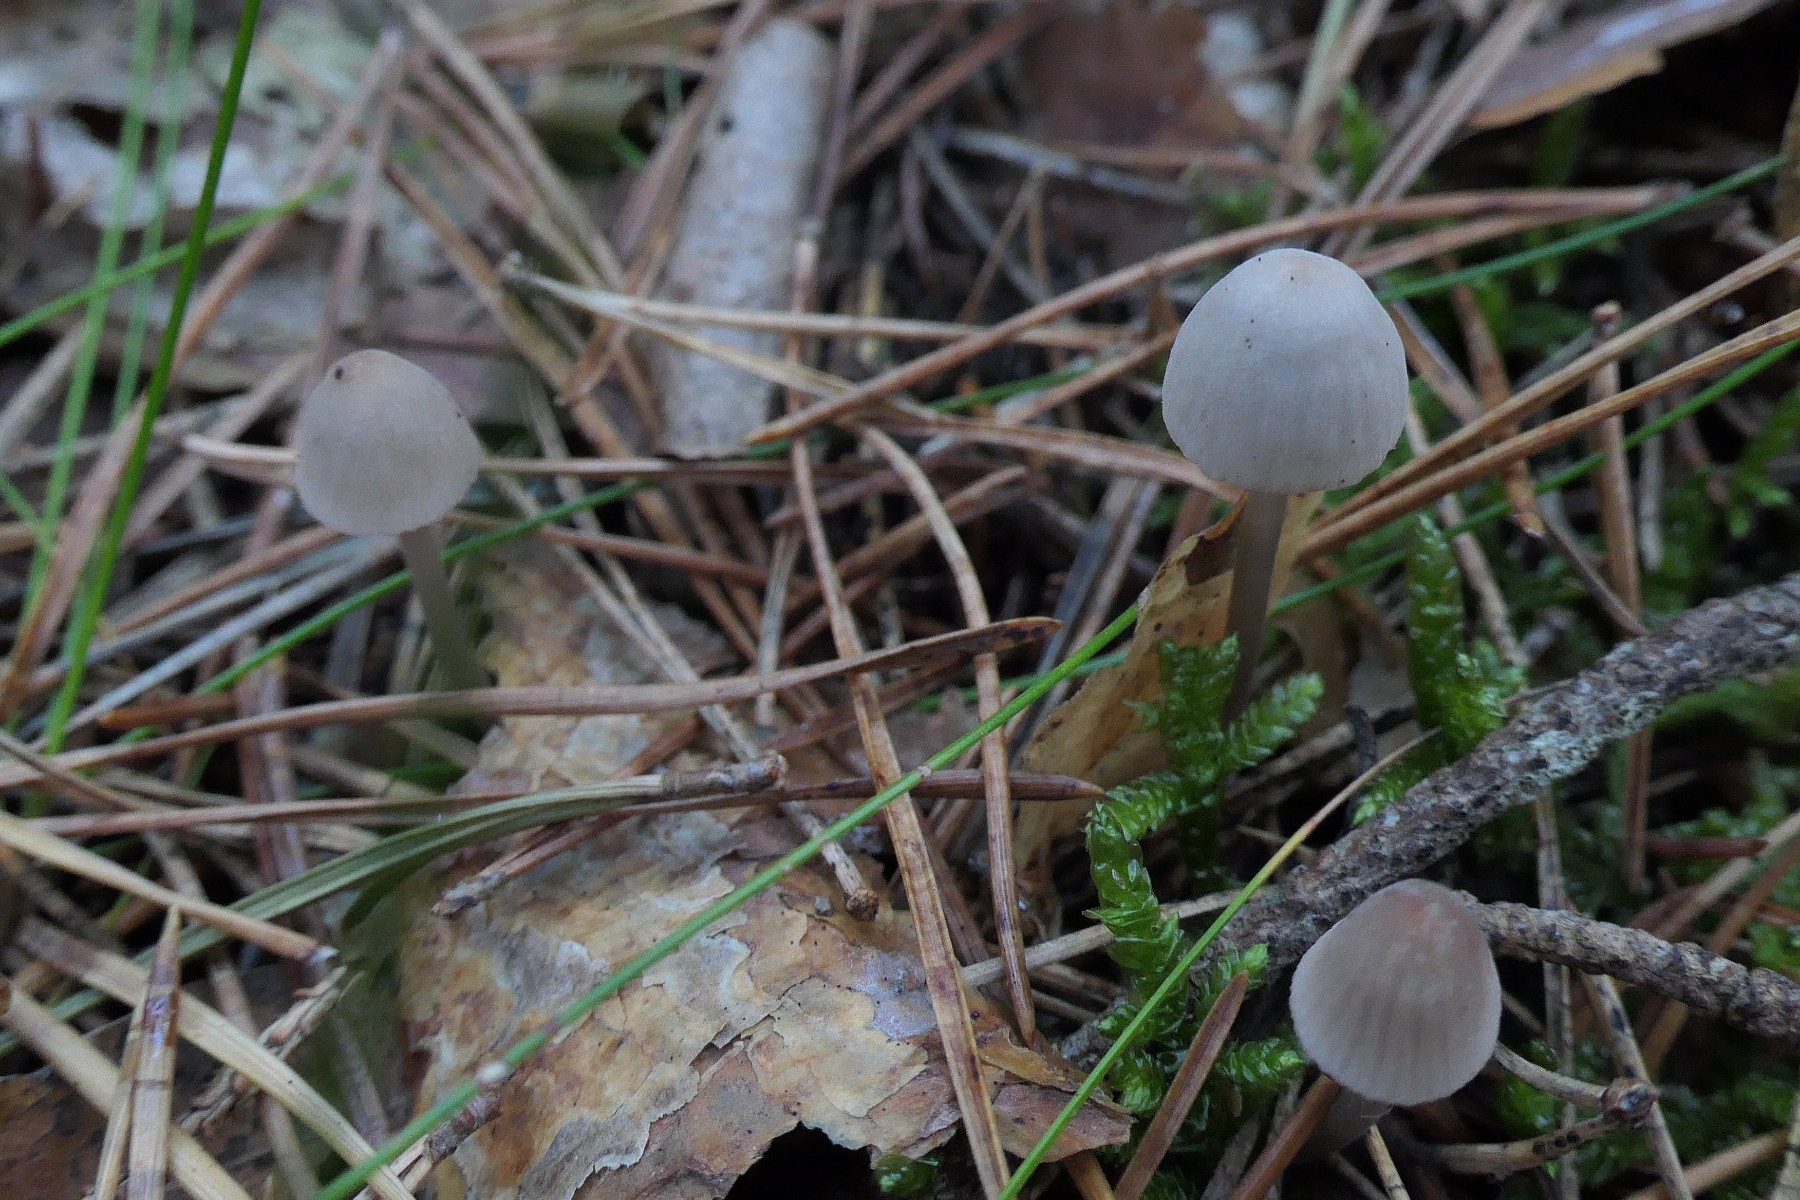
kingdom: Fungi
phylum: Basidiomycota
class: Agaricomycetes
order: Agaricales
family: Mycenaceae
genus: Mycena
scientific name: Mycena capillaripes
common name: nåle-huesvamp
